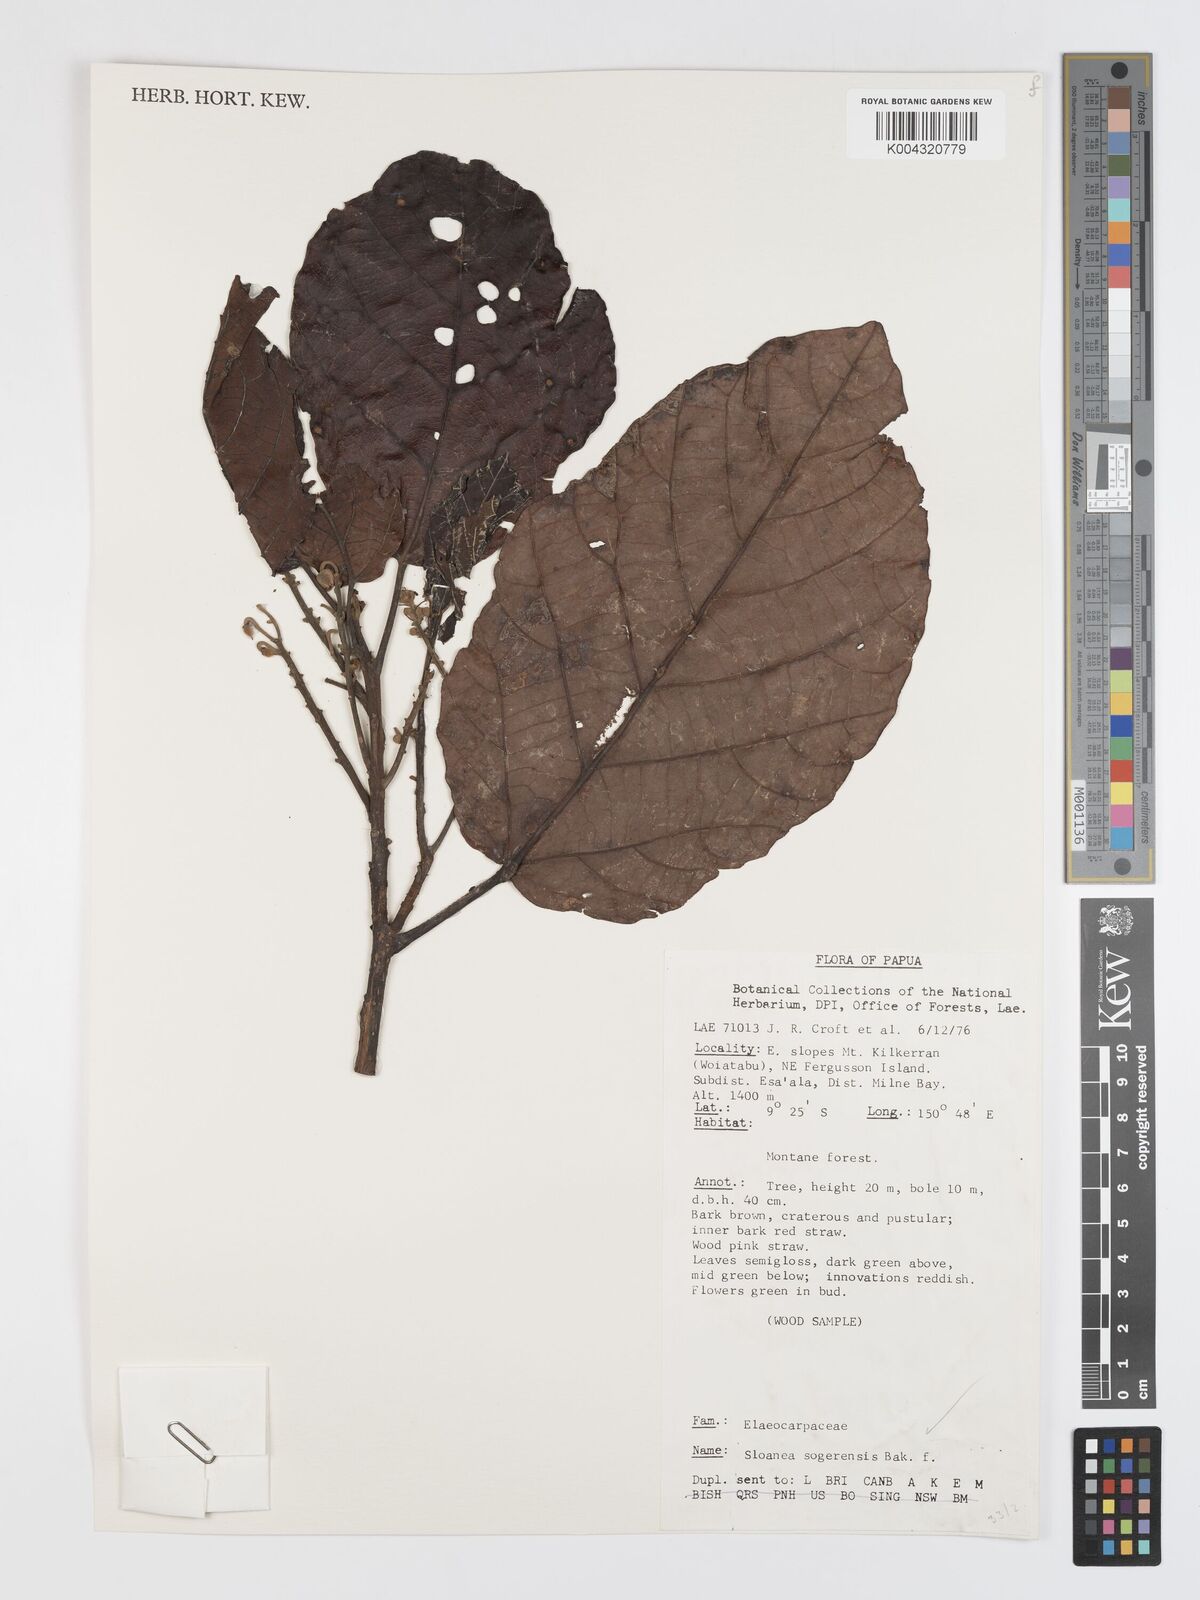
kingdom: Plantae
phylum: Tracheophyta
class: Magnoliopsida
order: Oxalidales
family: Elaeocarpaceae
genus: Sloanea
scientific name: Sloanea sogerensis
